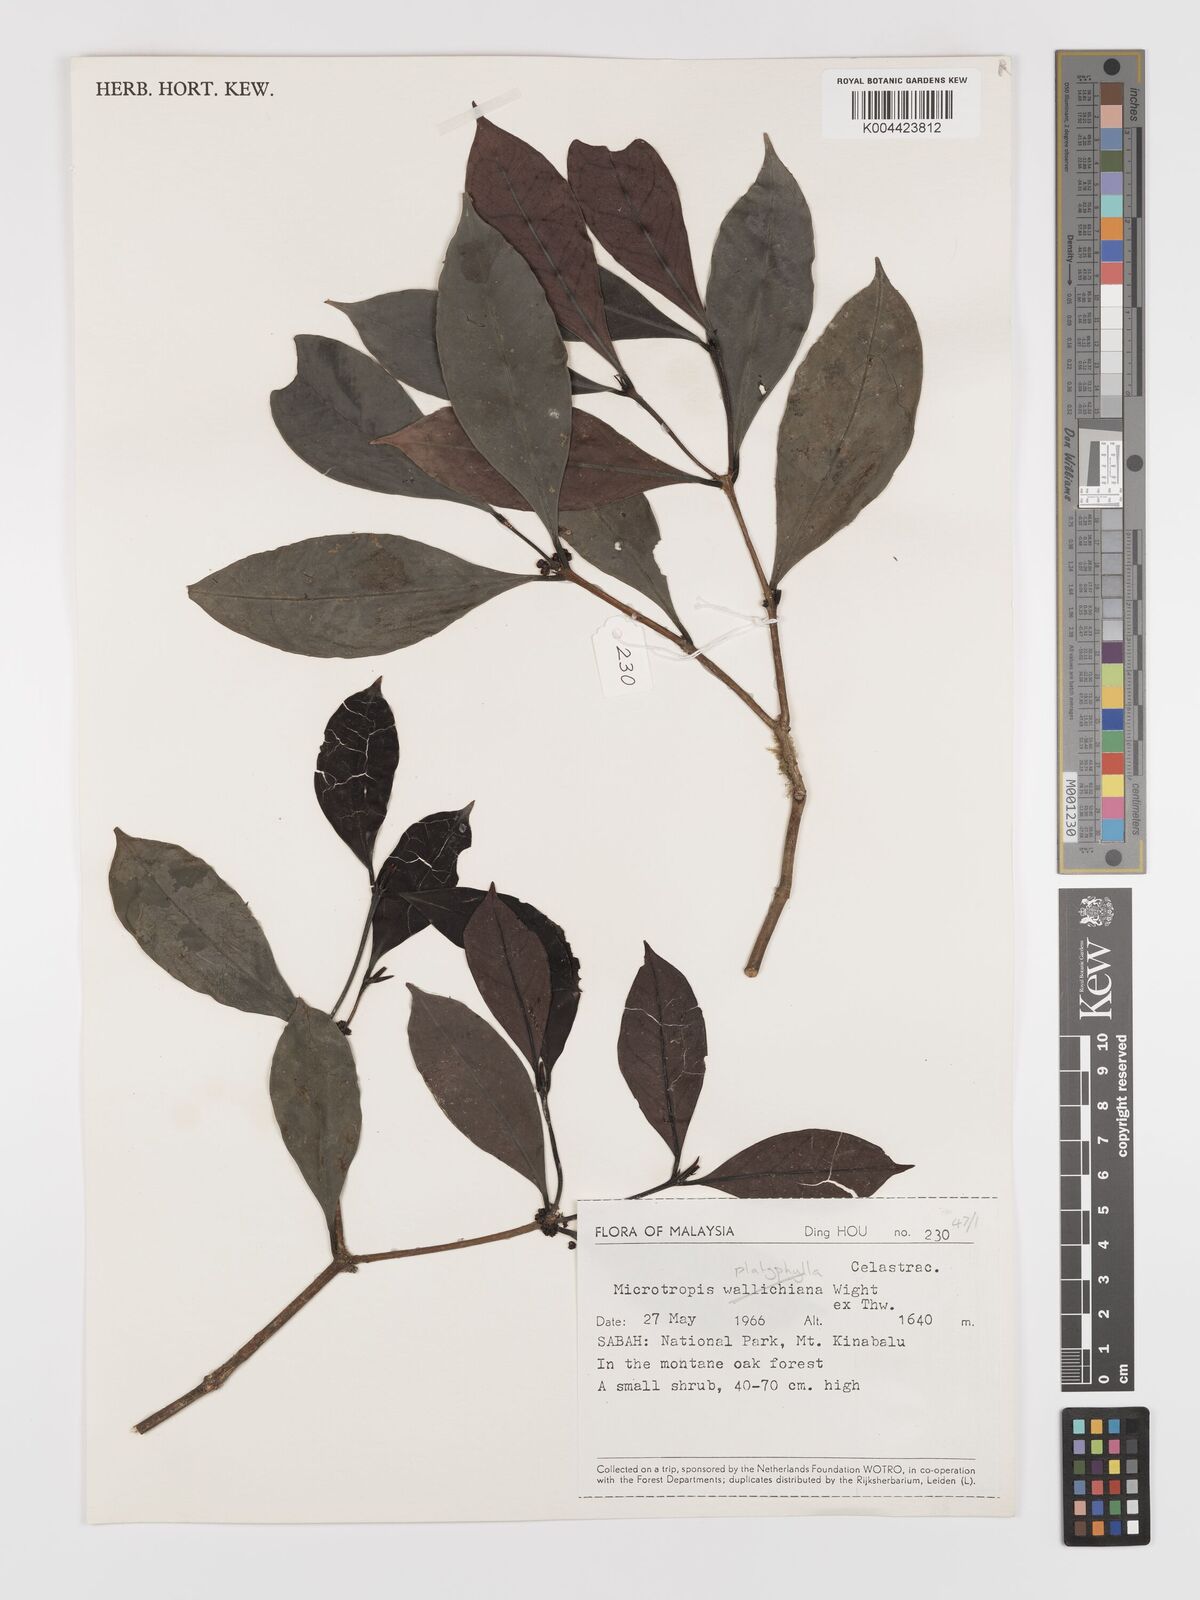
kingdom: Plantae
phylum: Tracheophyta
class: Magnoliopsida
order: Celastrales
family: Celastraceae
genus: Microtropis
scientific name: Microtropis platyphylla
